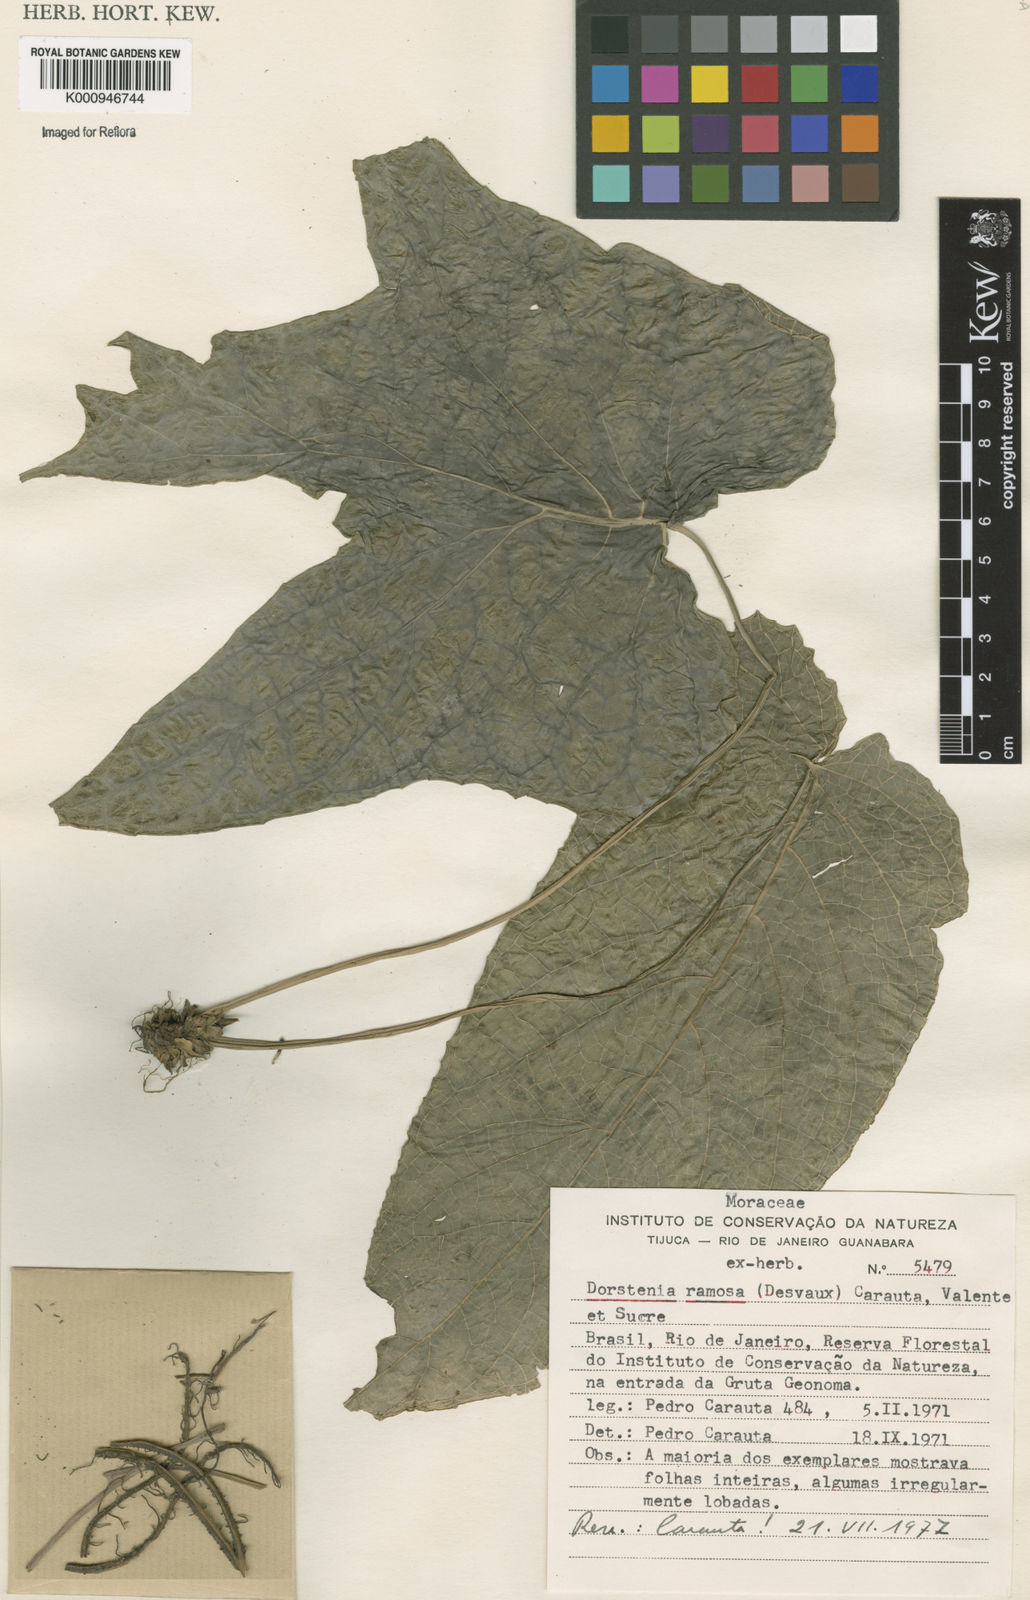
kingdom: Plantae
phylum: Tracheophyta
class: Magnoliopsida
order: Rosales
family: Moraceae
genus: Dorstenia
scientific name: Dorstenia ramosa
